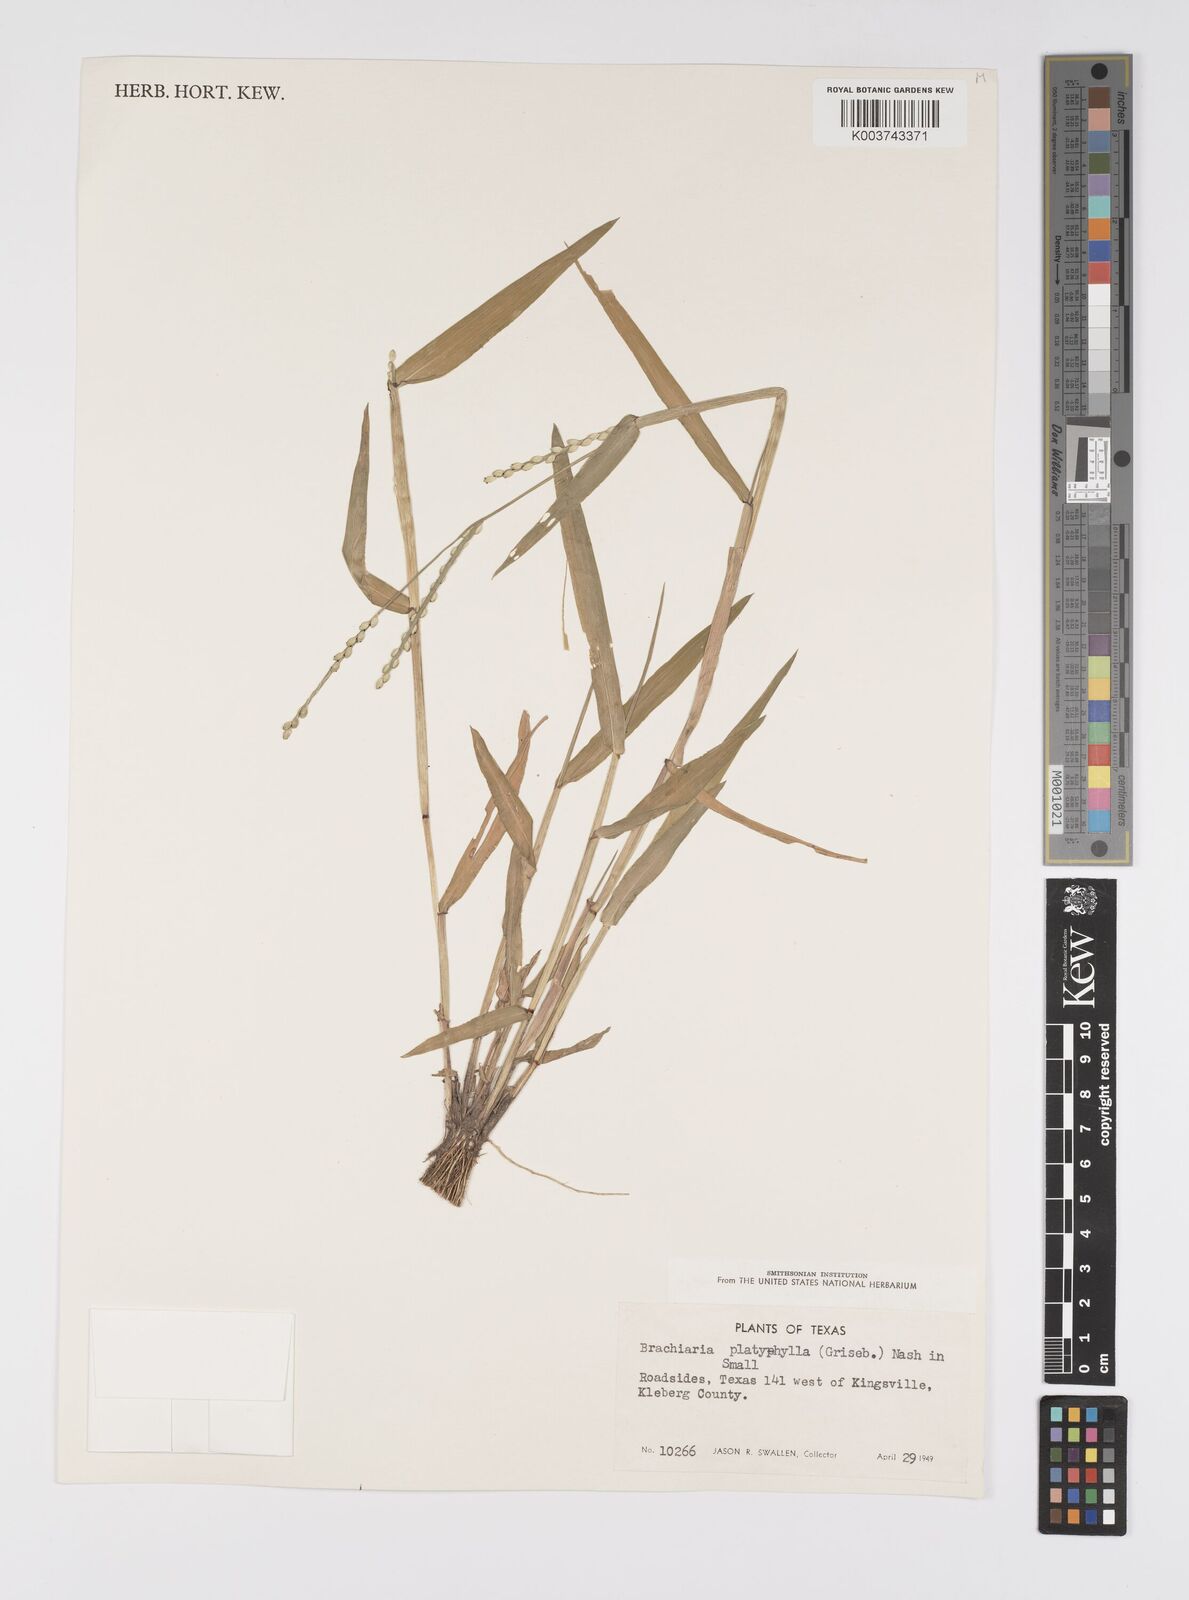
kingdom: Plantae
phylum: Tracheophyta
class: Liliopsida
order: Poales
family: Poaceae
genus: Urochloa
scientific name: Urochloa platyphylla
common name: White para grass
